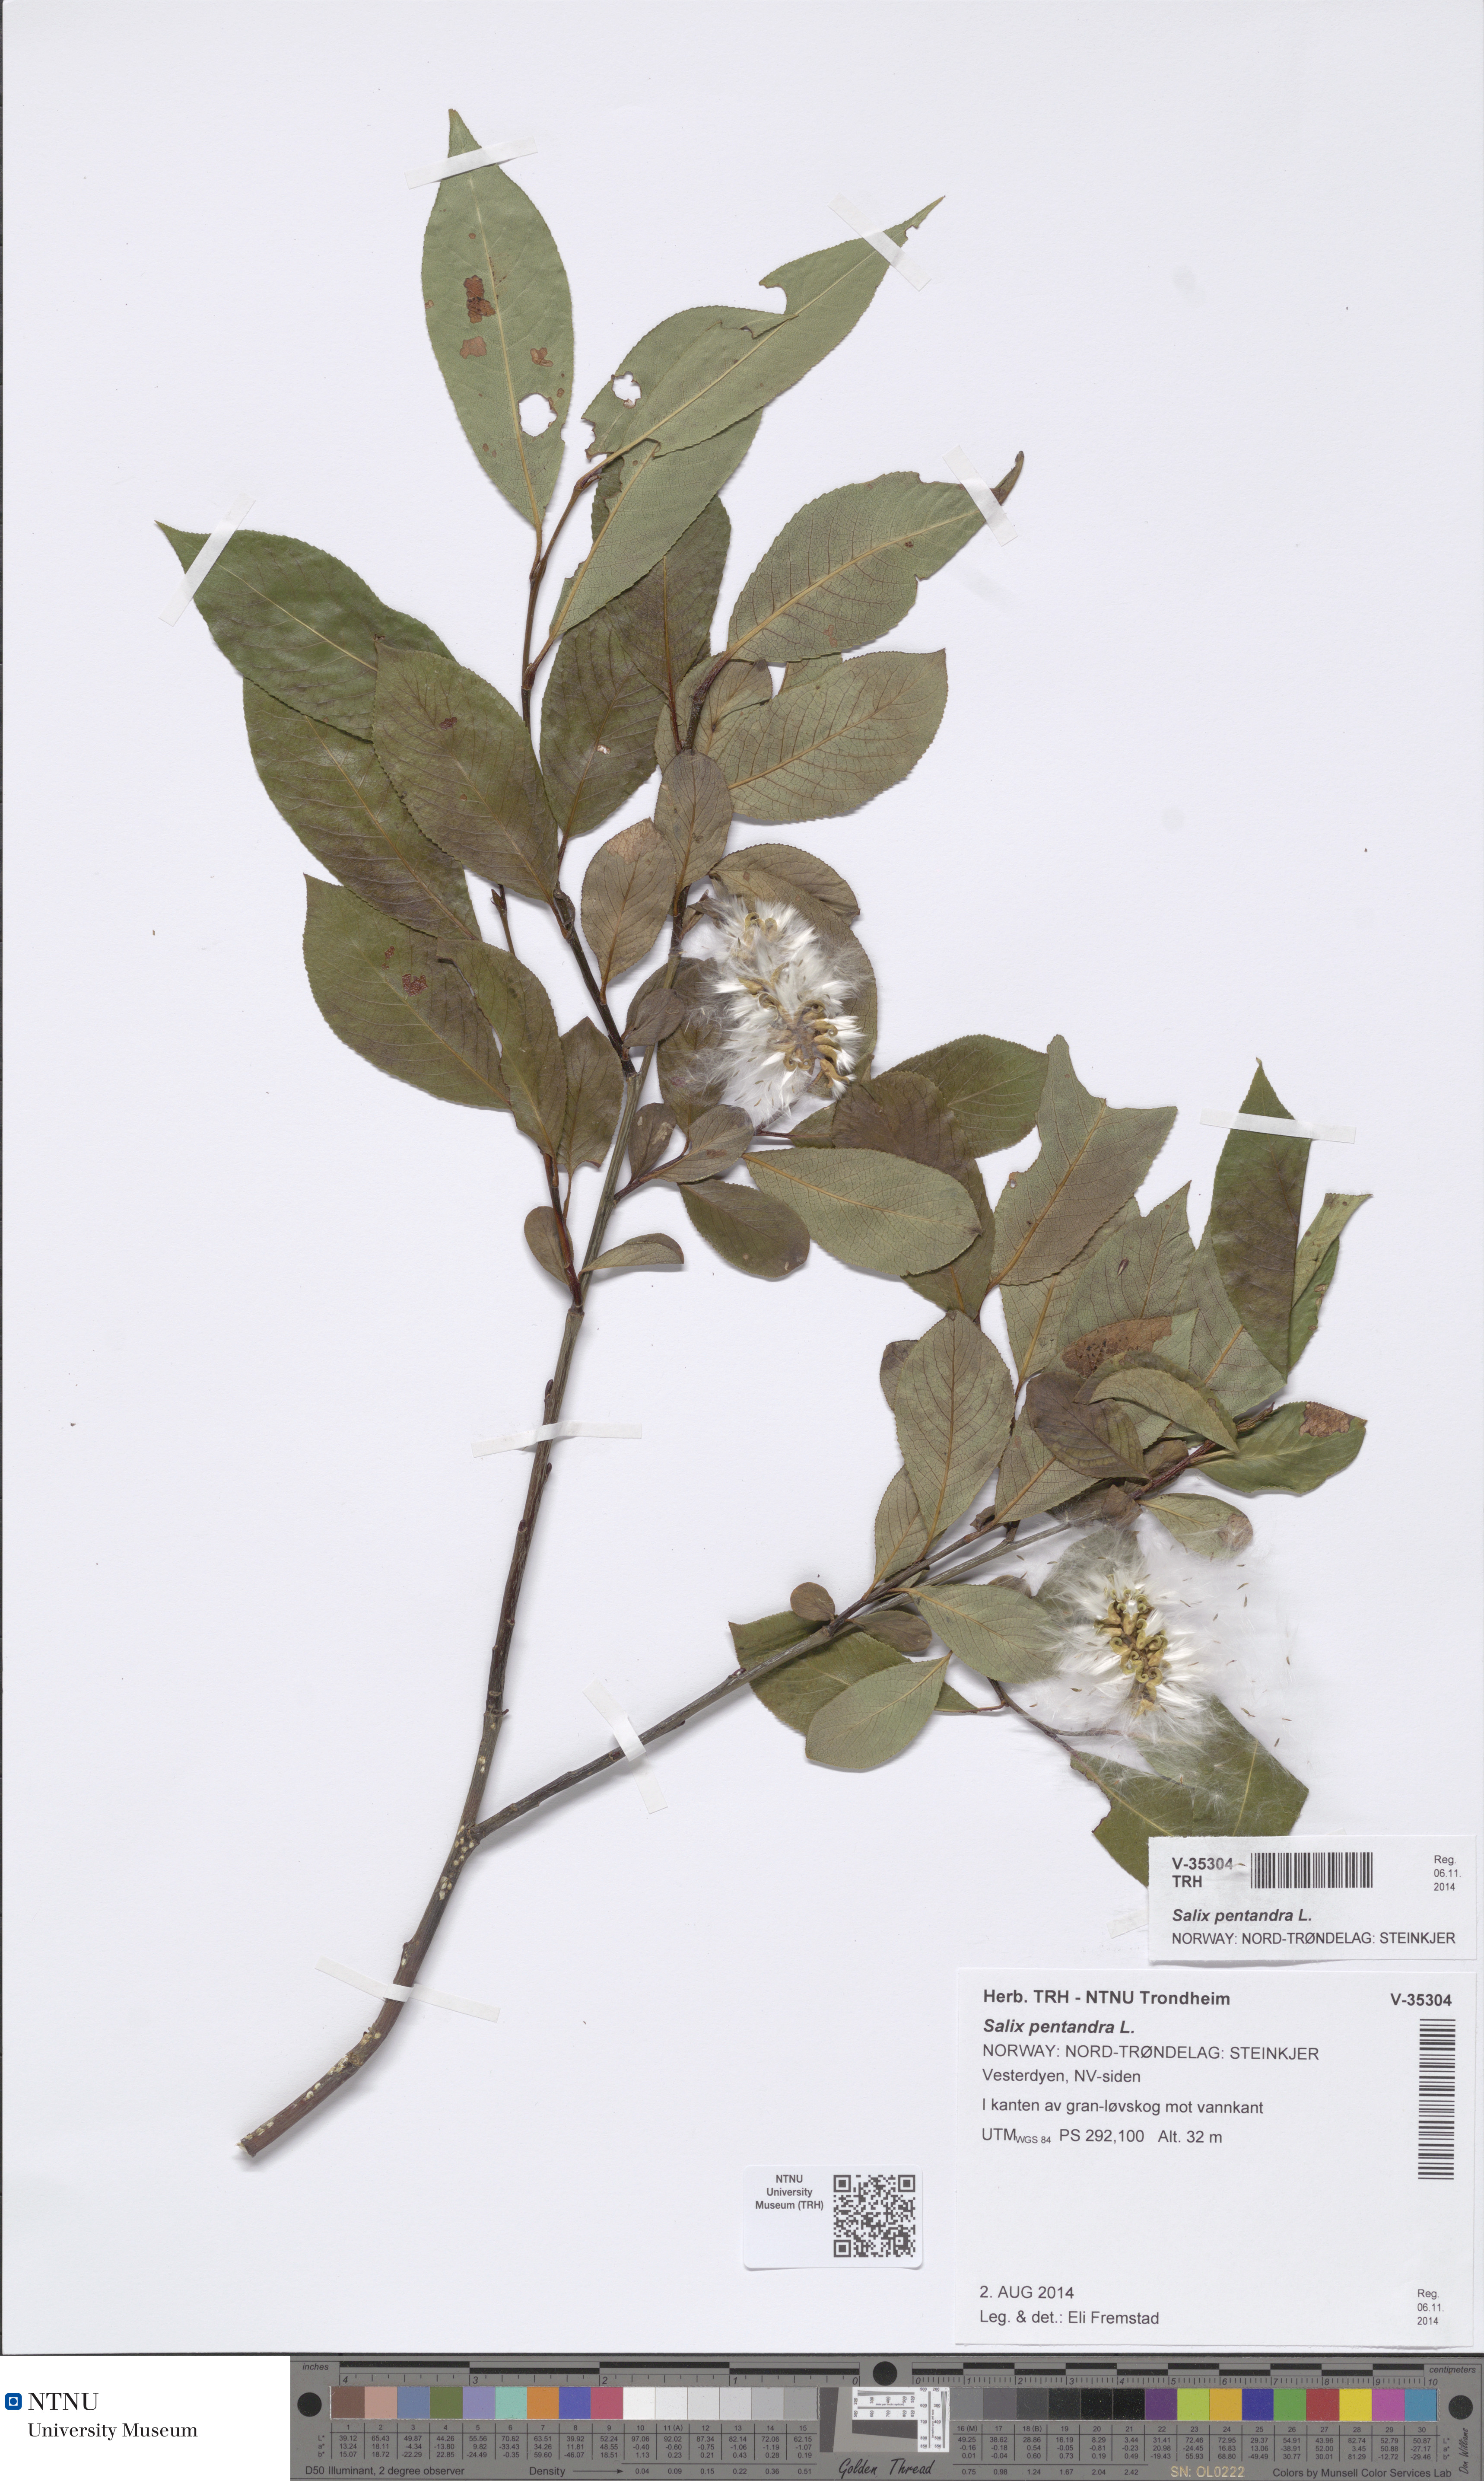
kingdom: Plantae
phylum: Tracheophyta
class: Magnoliopsida
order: Malpighiales
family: Salicaceae
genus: Salix
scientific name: Salix pentandra
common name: Bay willow
